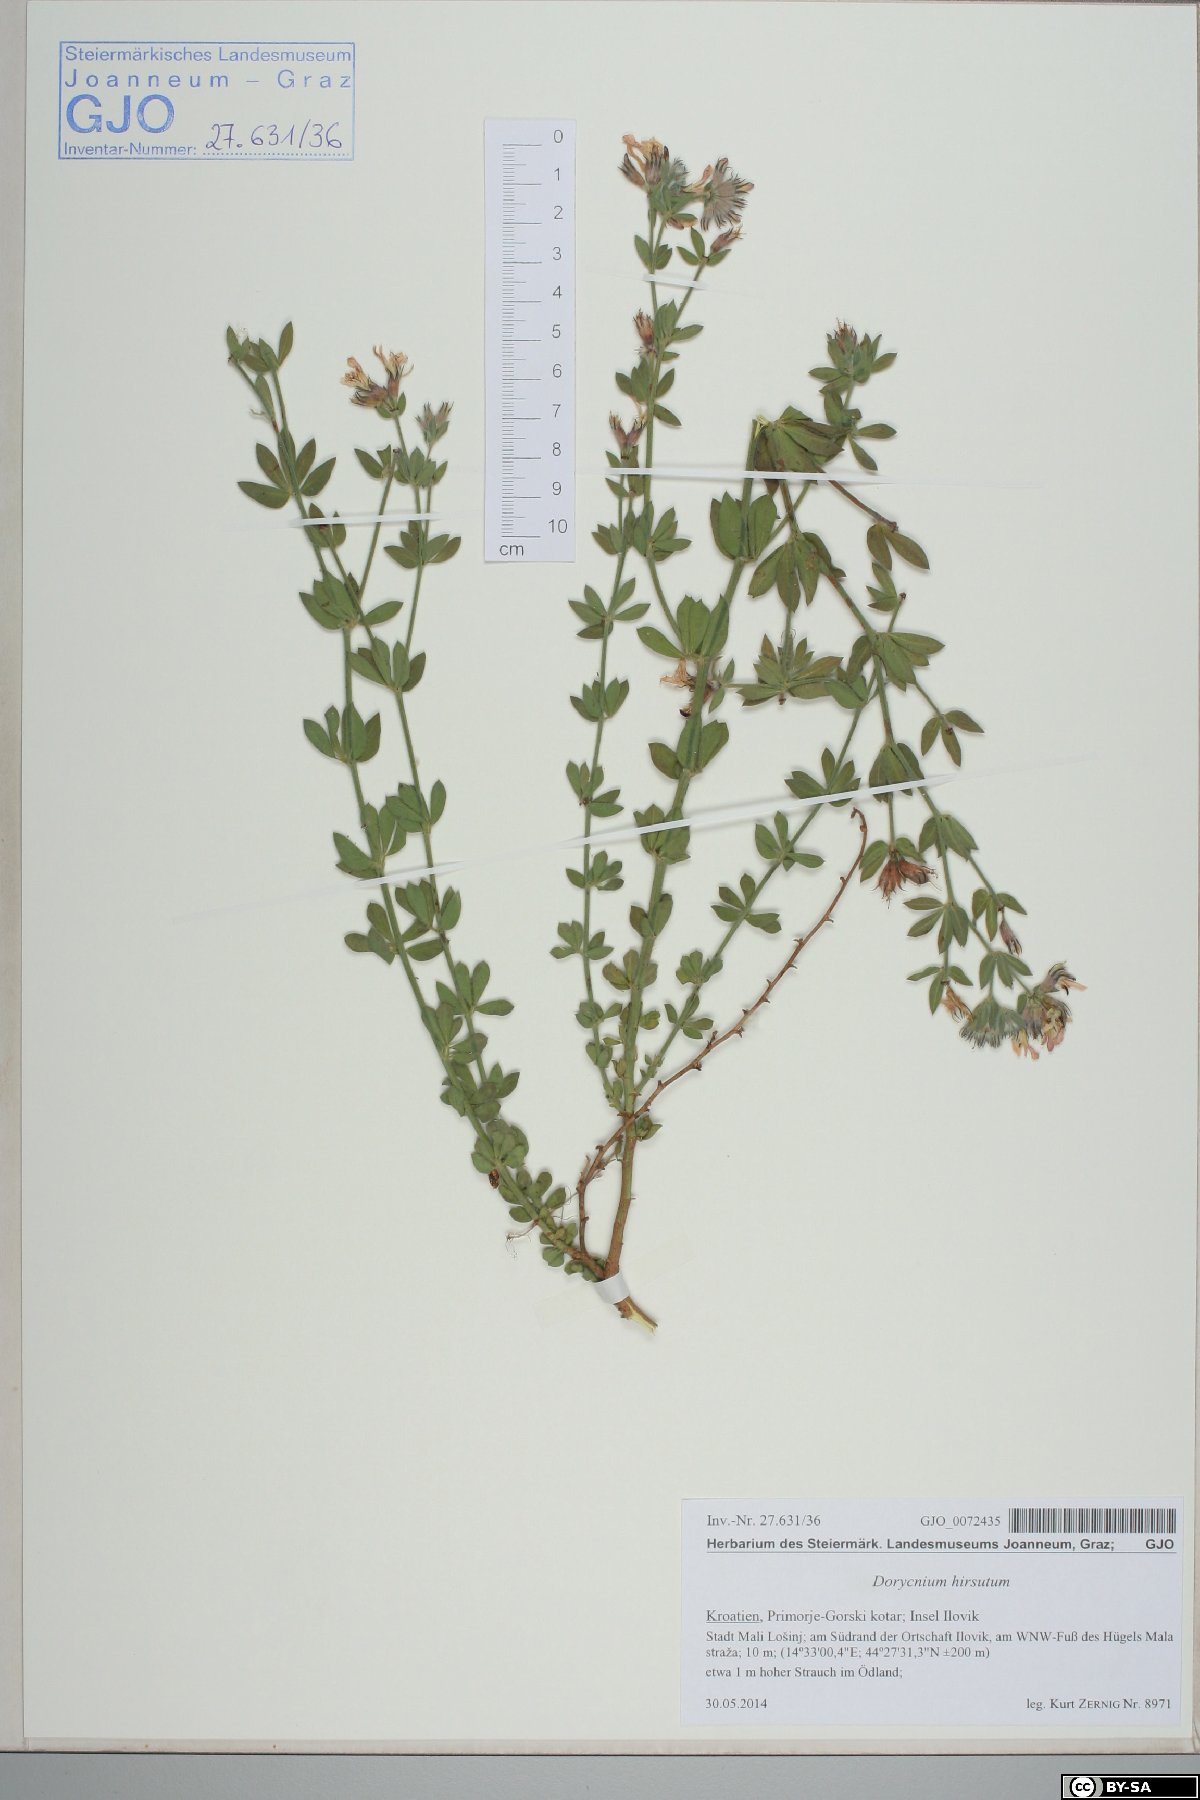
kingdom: Plantae
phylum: Tracheophyta
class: Magnoliopsida
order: Fabales
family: Fabaceae
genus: Lotus
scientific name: Lotus hirsutus
